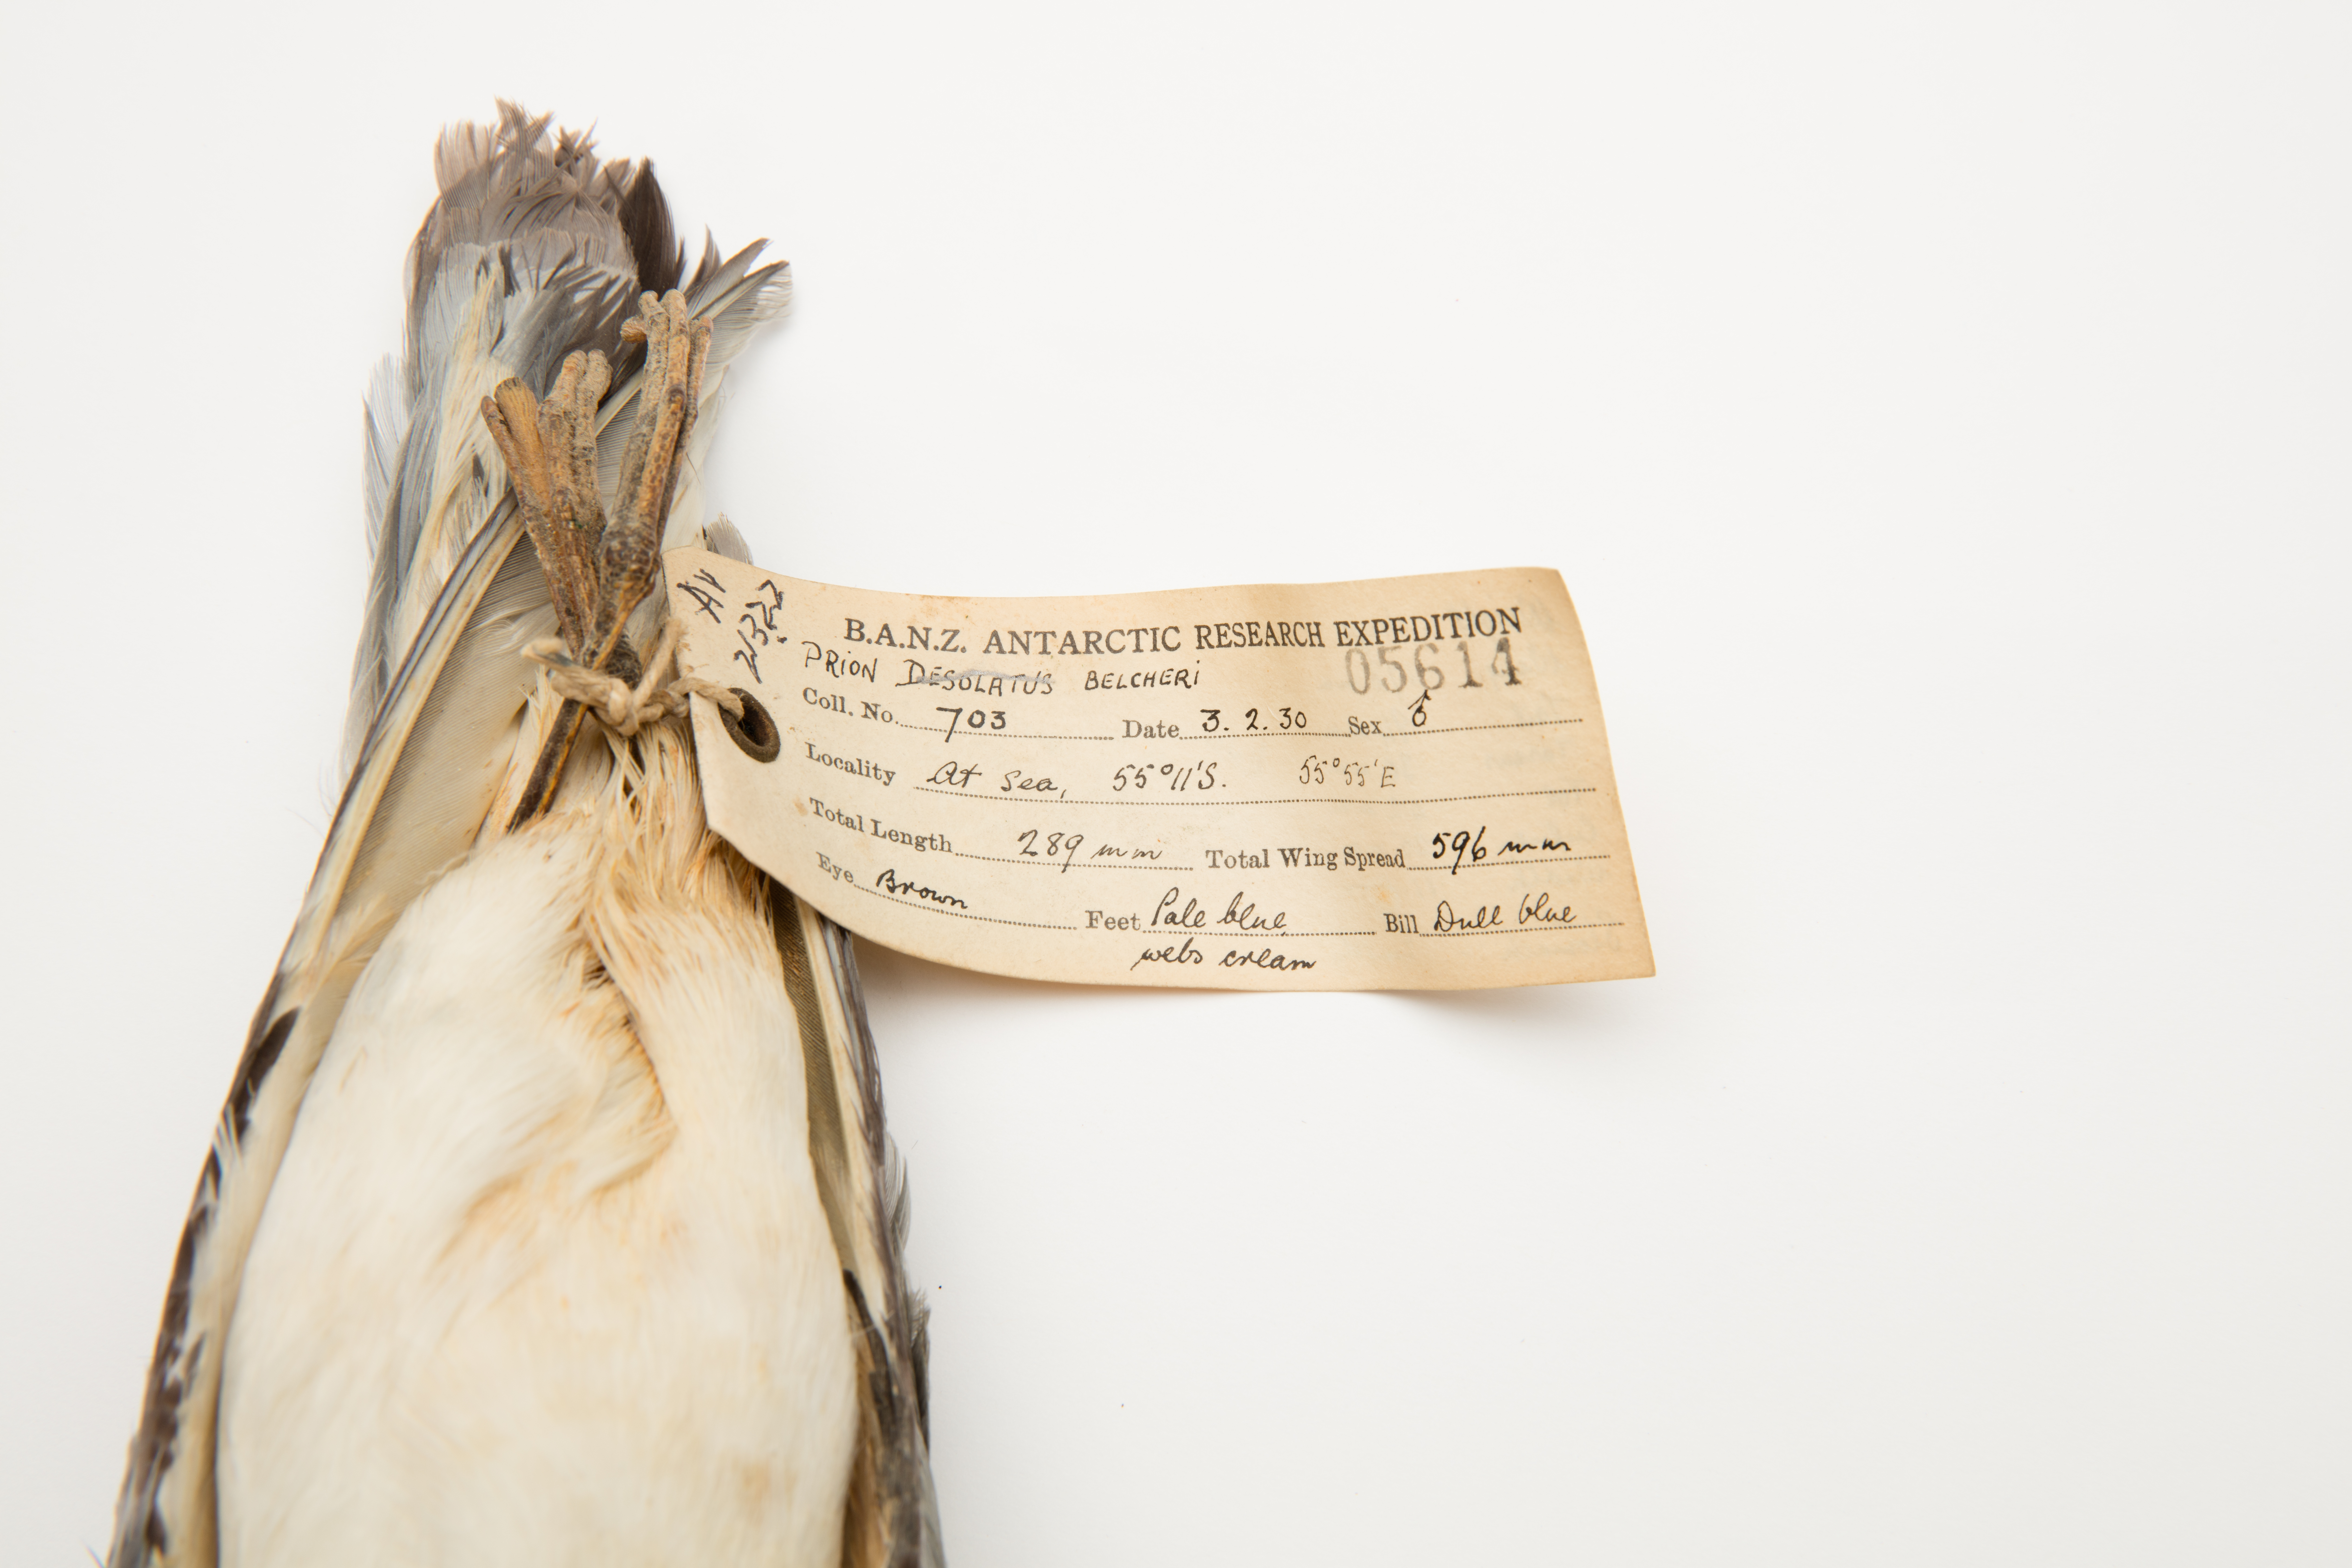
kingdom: Animalia
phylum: Chordata
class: Aves
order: Procellariiformes
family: Procellariidae
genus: Pachyptila
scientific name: Pachyptila belcheri
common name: Slender-billed prion
